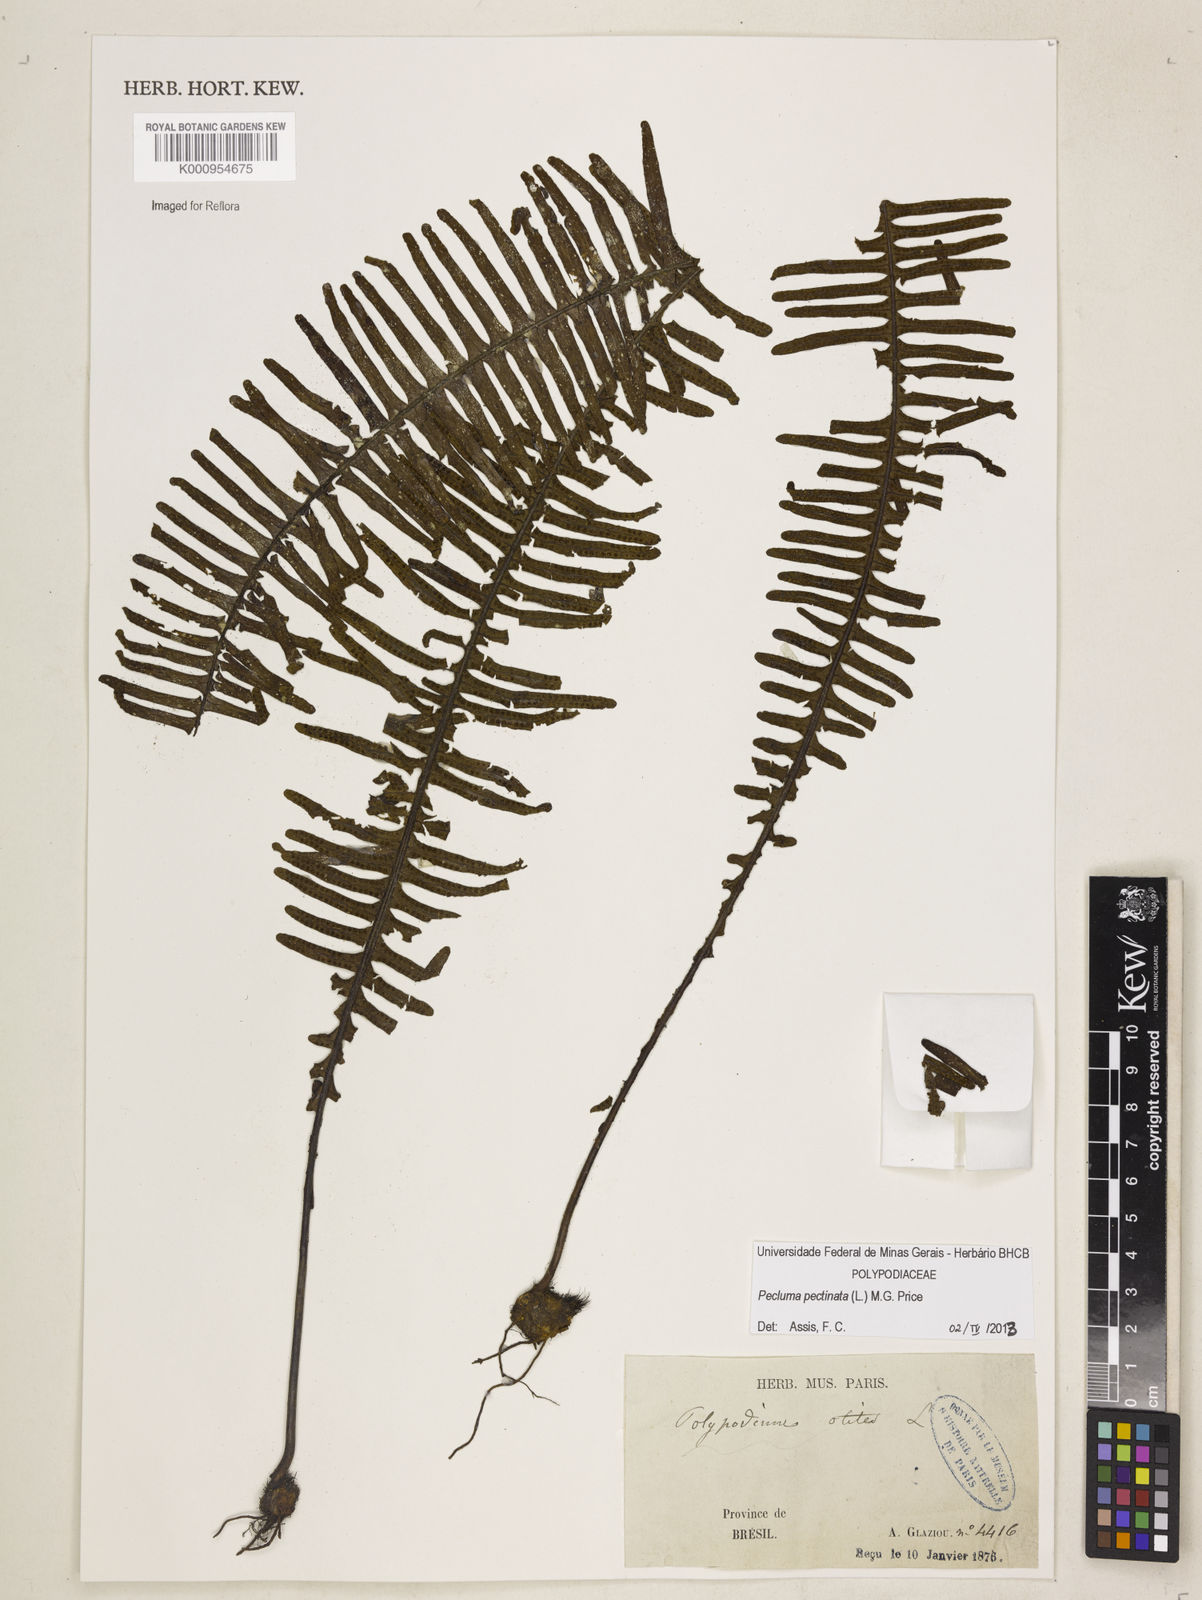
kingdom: Plantae
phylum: Tracheophyta
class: Polypodiopsida
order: Polypodiales
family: Polypodiaceae
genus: Pecluma
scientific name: Pecluma pectinata
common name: Msasa fern
